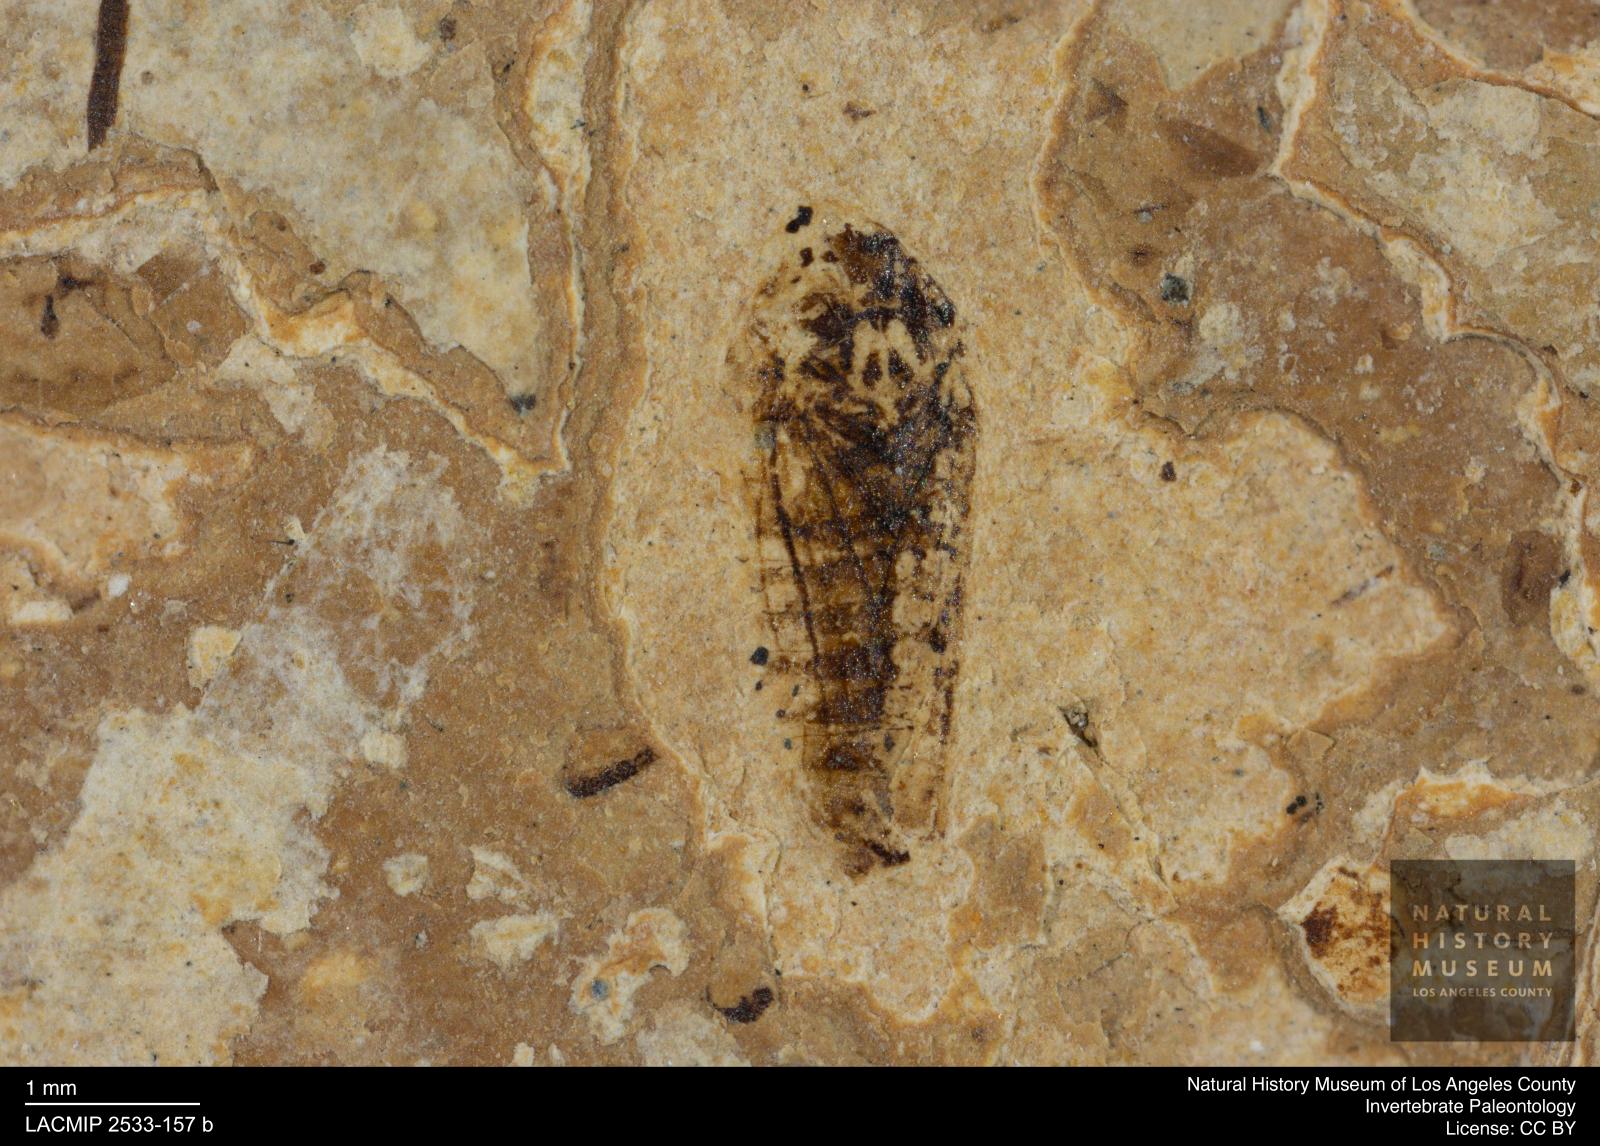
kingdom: Animalia
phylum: Arthropoda
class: Insecta
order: Hemiptera
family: Cicadellidae
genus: Iassus
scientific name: Iassus sepultus
